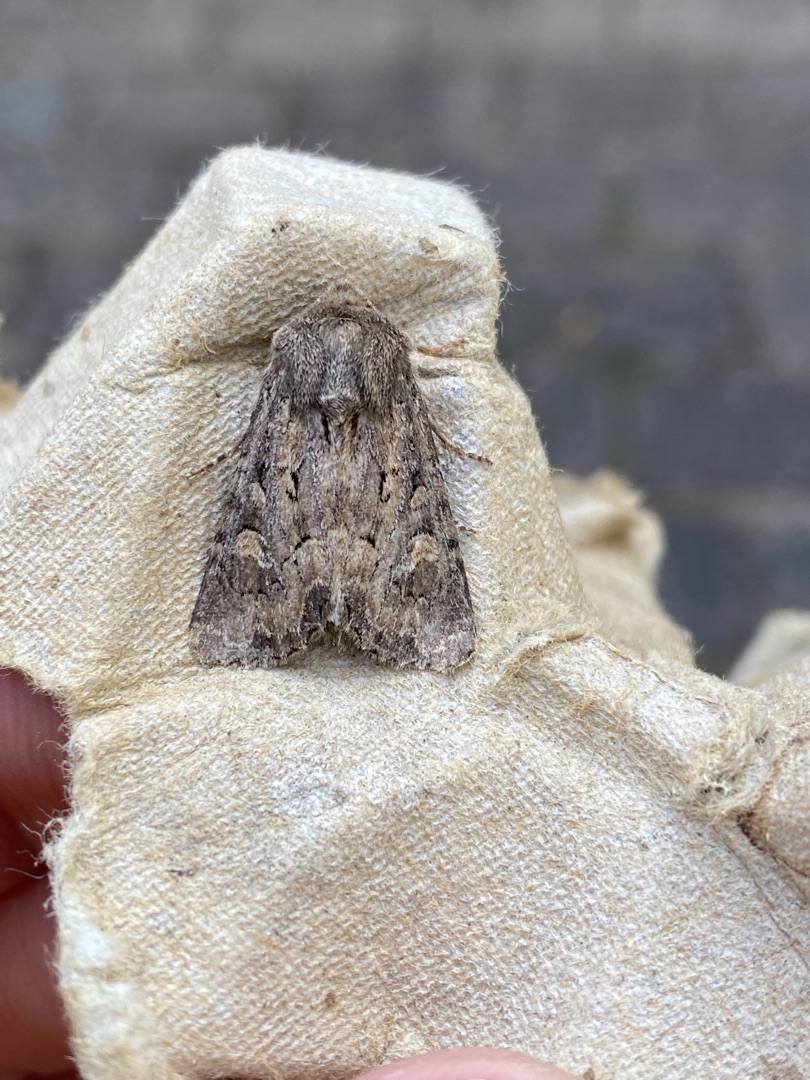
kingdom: Animalia
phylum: Arthropoda
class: Insecta
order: Lepidoptera
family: Noctuidae
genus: Luperina
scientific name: Luperina testacea
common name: Frøgræsugle
